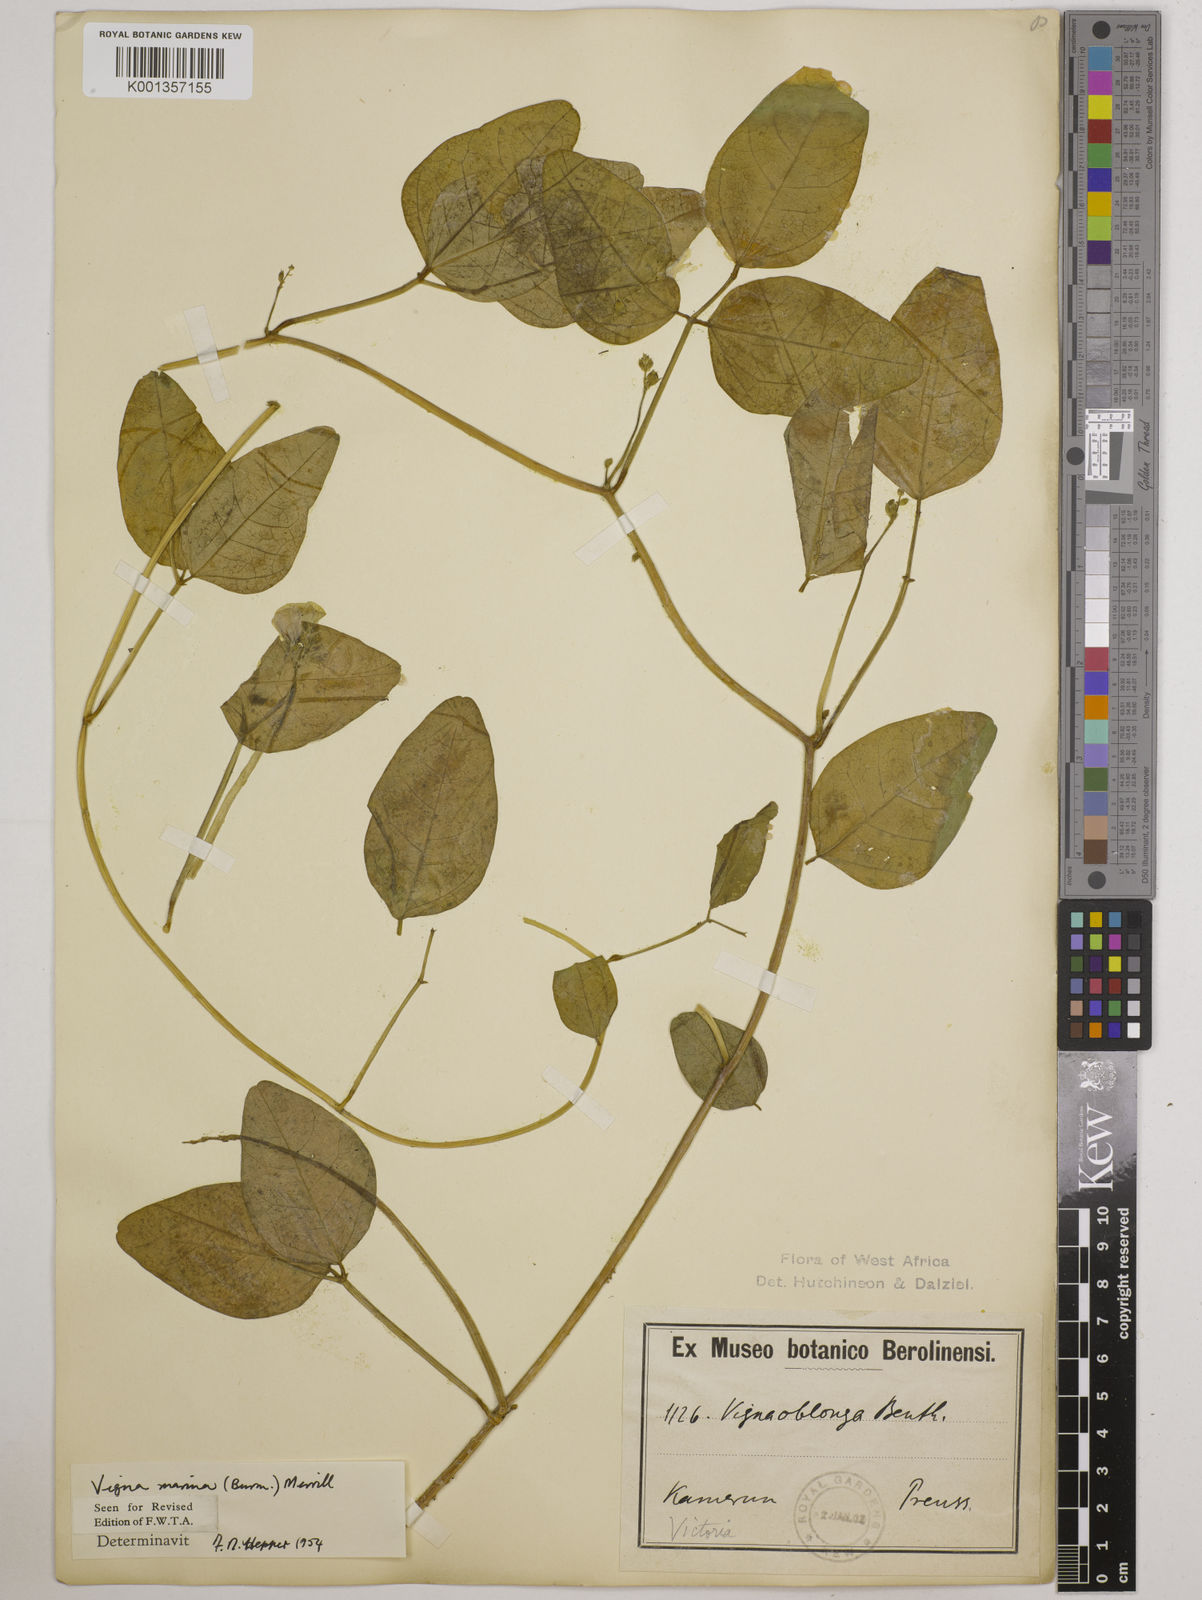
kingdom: Plantae
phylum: Tracheophyta
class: Magnoliopsida
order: Fabales
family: Fabaceae
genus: Vigna
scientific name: Vigna marina
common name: Dune-bean
